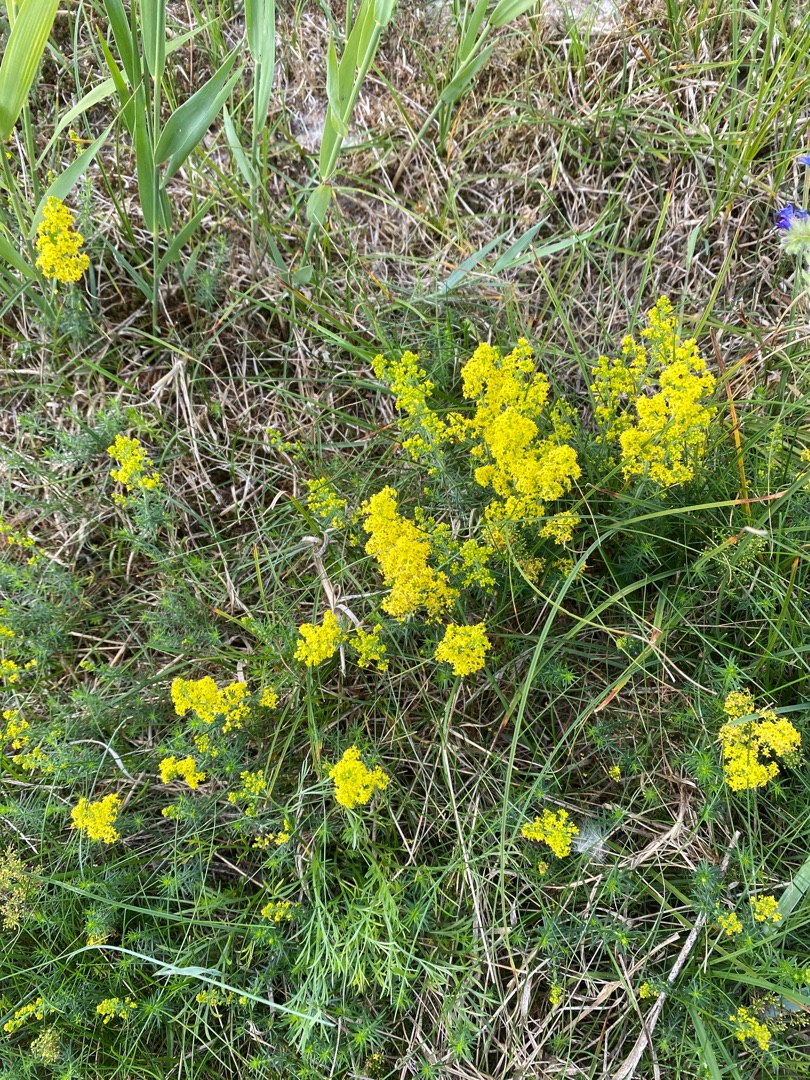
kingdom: Plantae
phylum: Tracheophyta
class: Magnoliopsida
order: Gentianales
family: Rubiaceae
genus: Galium
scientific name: Galium verum
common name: Gul snerre
